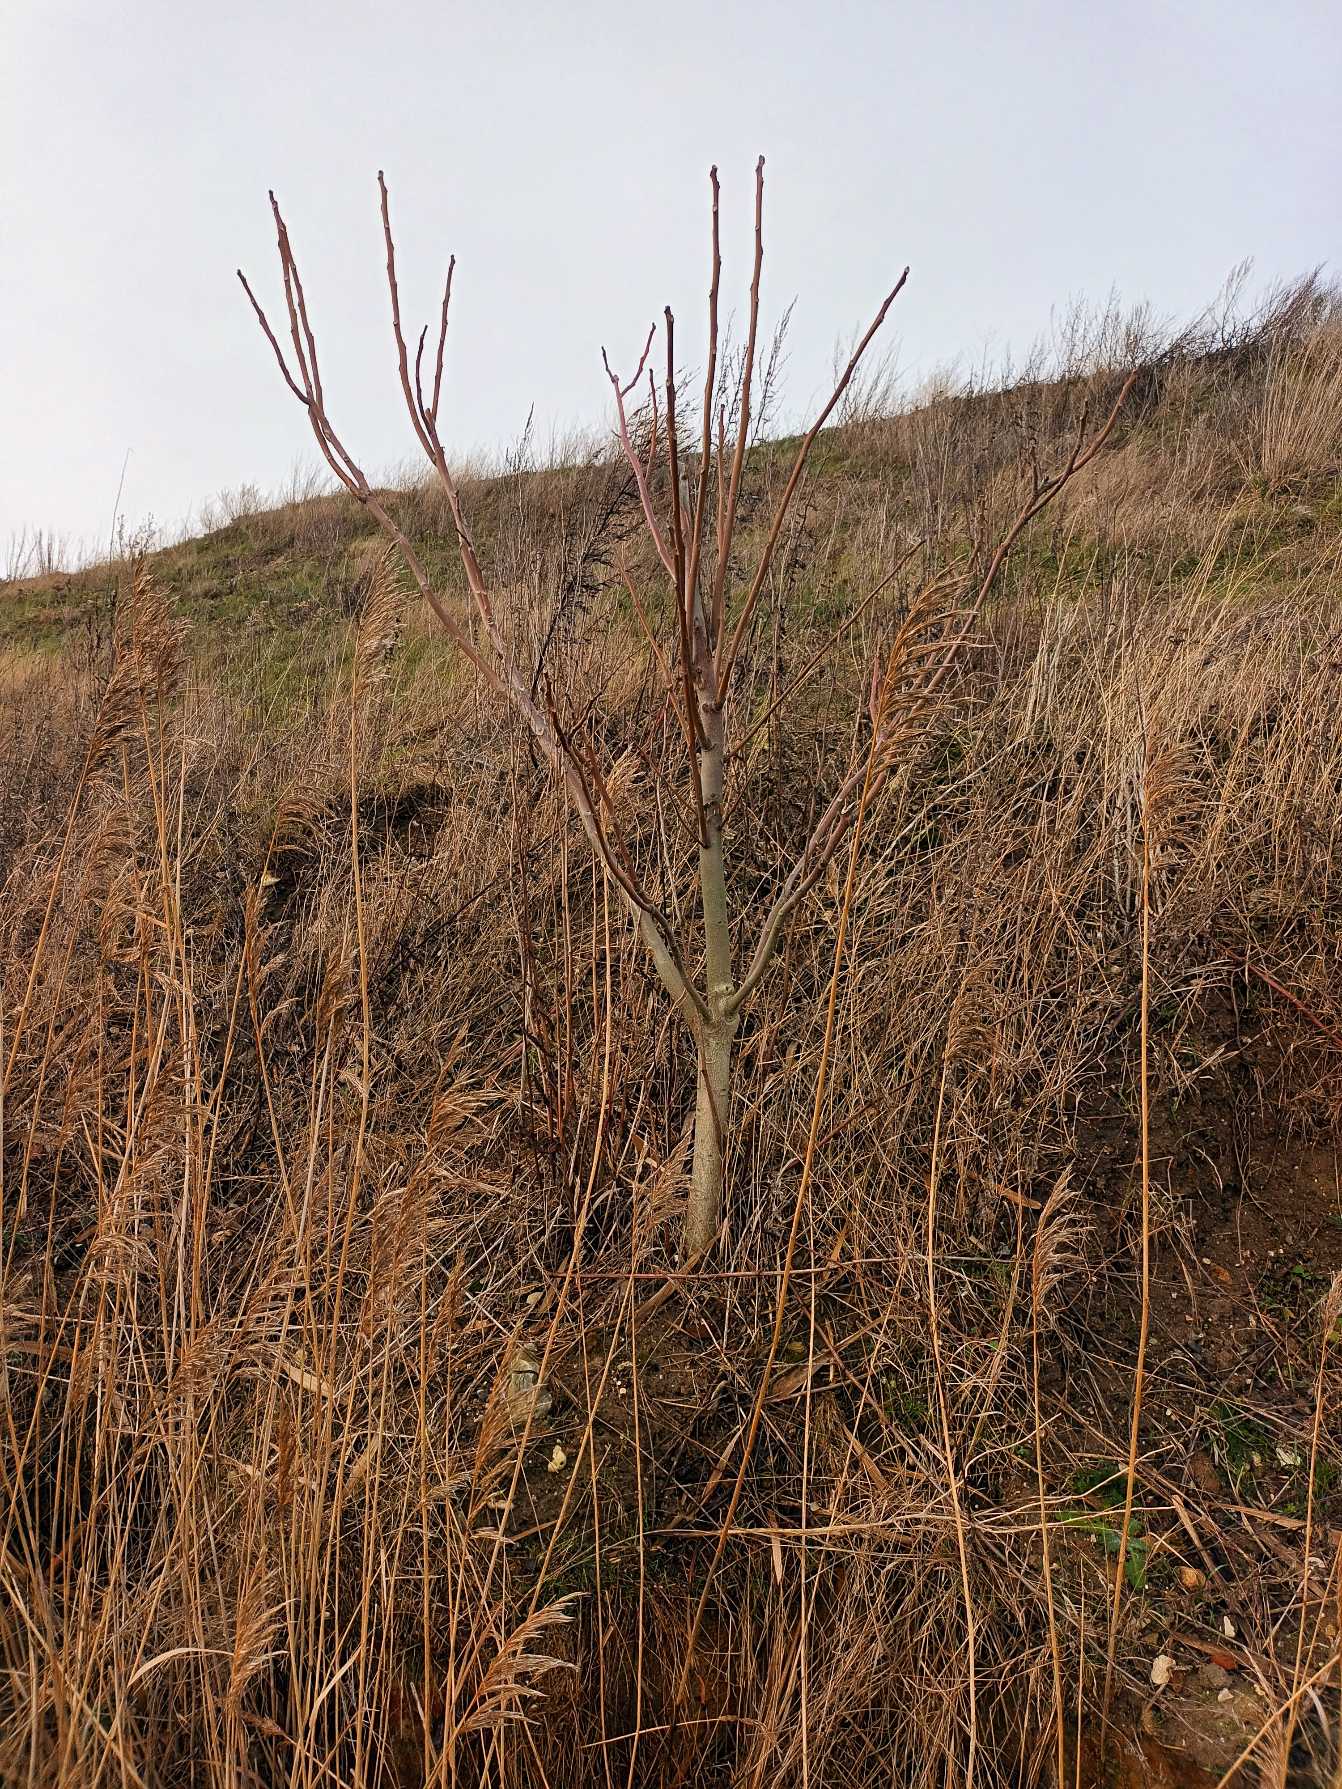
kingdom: Plantae
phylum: Tracheophyta
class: Magnoliopsida
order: Sapindales
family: Simaroubaceae
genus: Ailanthus
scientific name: Ailanthus altissima
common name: Skyrækker
